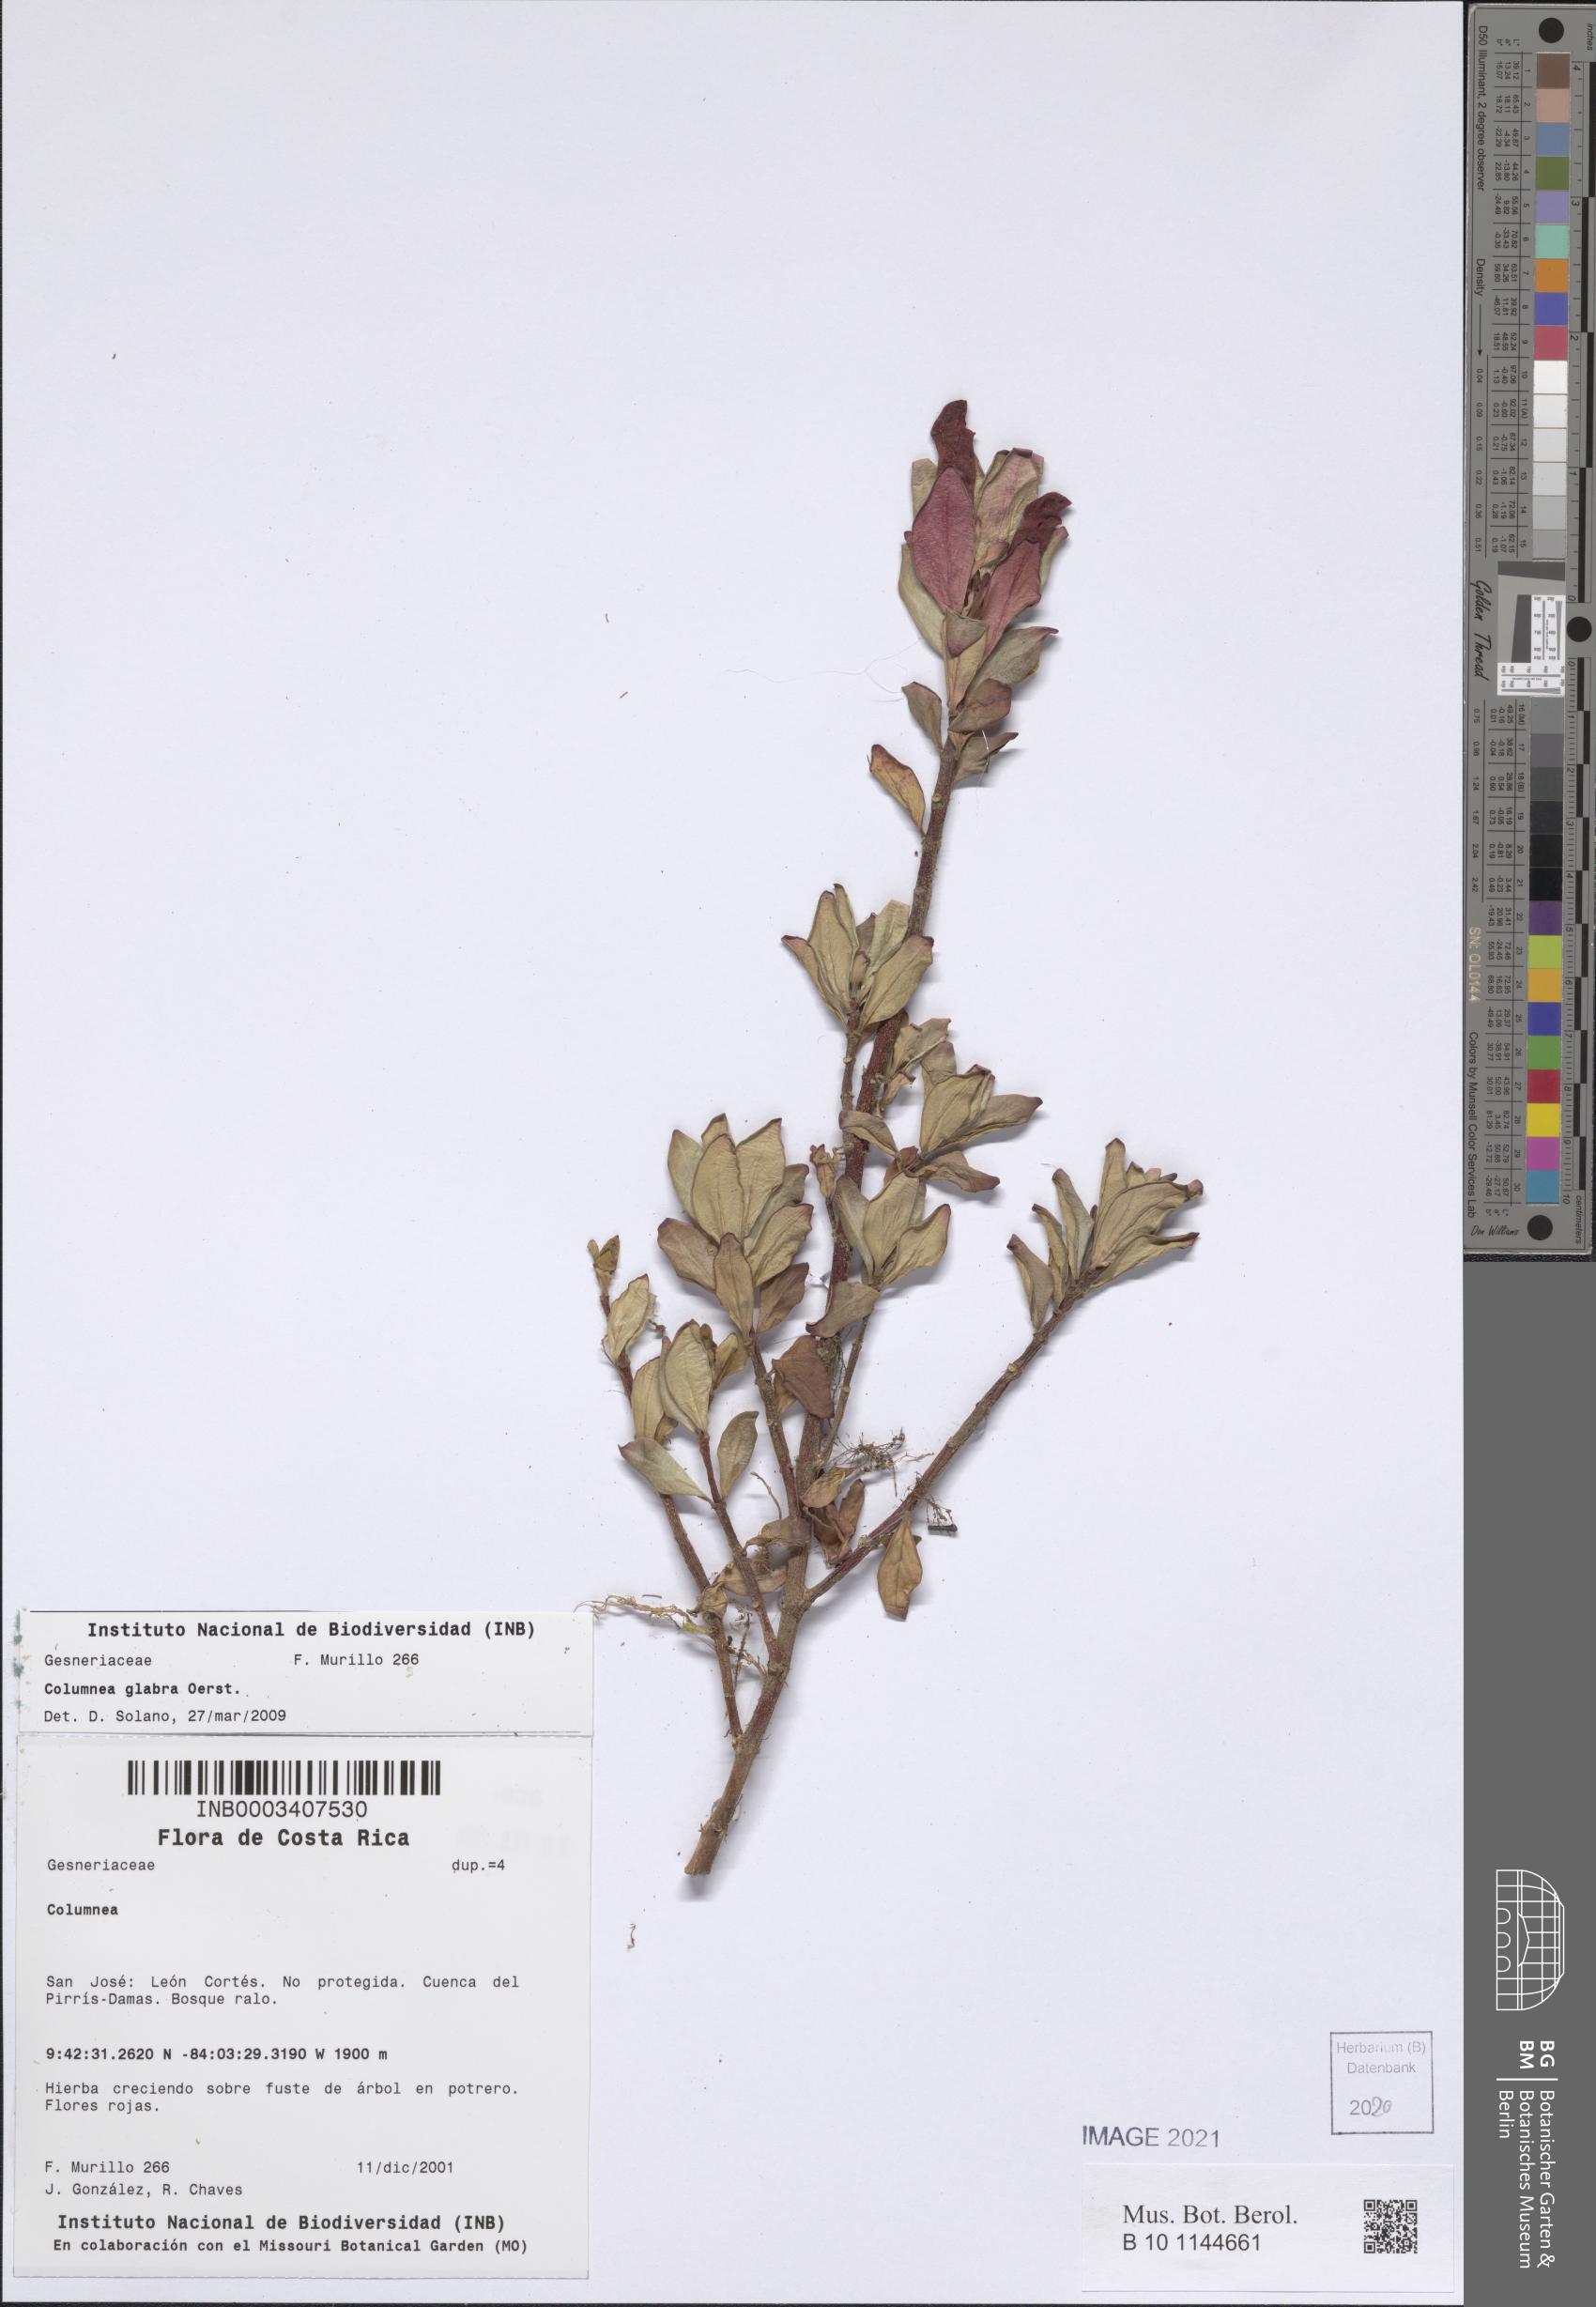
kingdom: Plantae
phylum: Tracheophyta
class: Magnoliopsida
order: Lamiales
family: Gesneriaceae
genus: Columnea
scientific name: Columnea glabra
